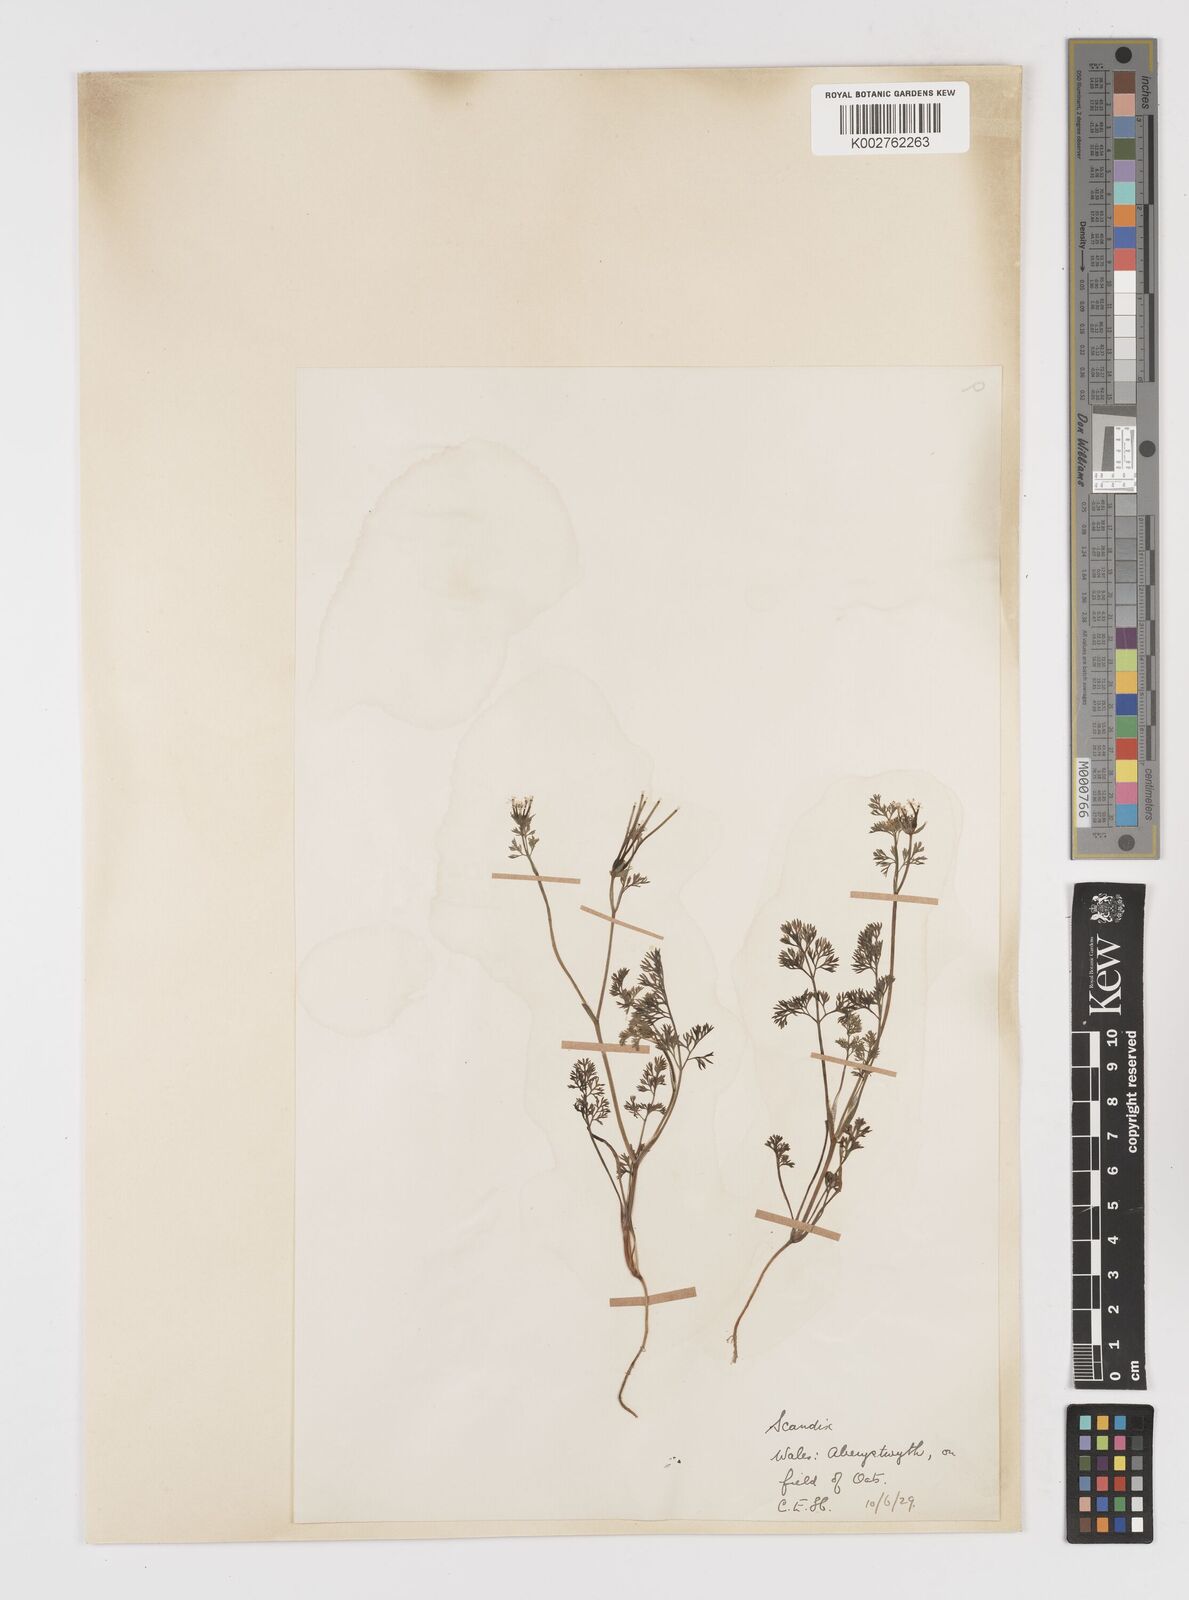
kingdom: Plantae
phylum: Tracheophyta
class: Magnoliopsida
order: Apiales
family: Apiaceae
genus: Scandix
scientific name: Scandix pecten-veneris
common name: Shepherd's-needle
